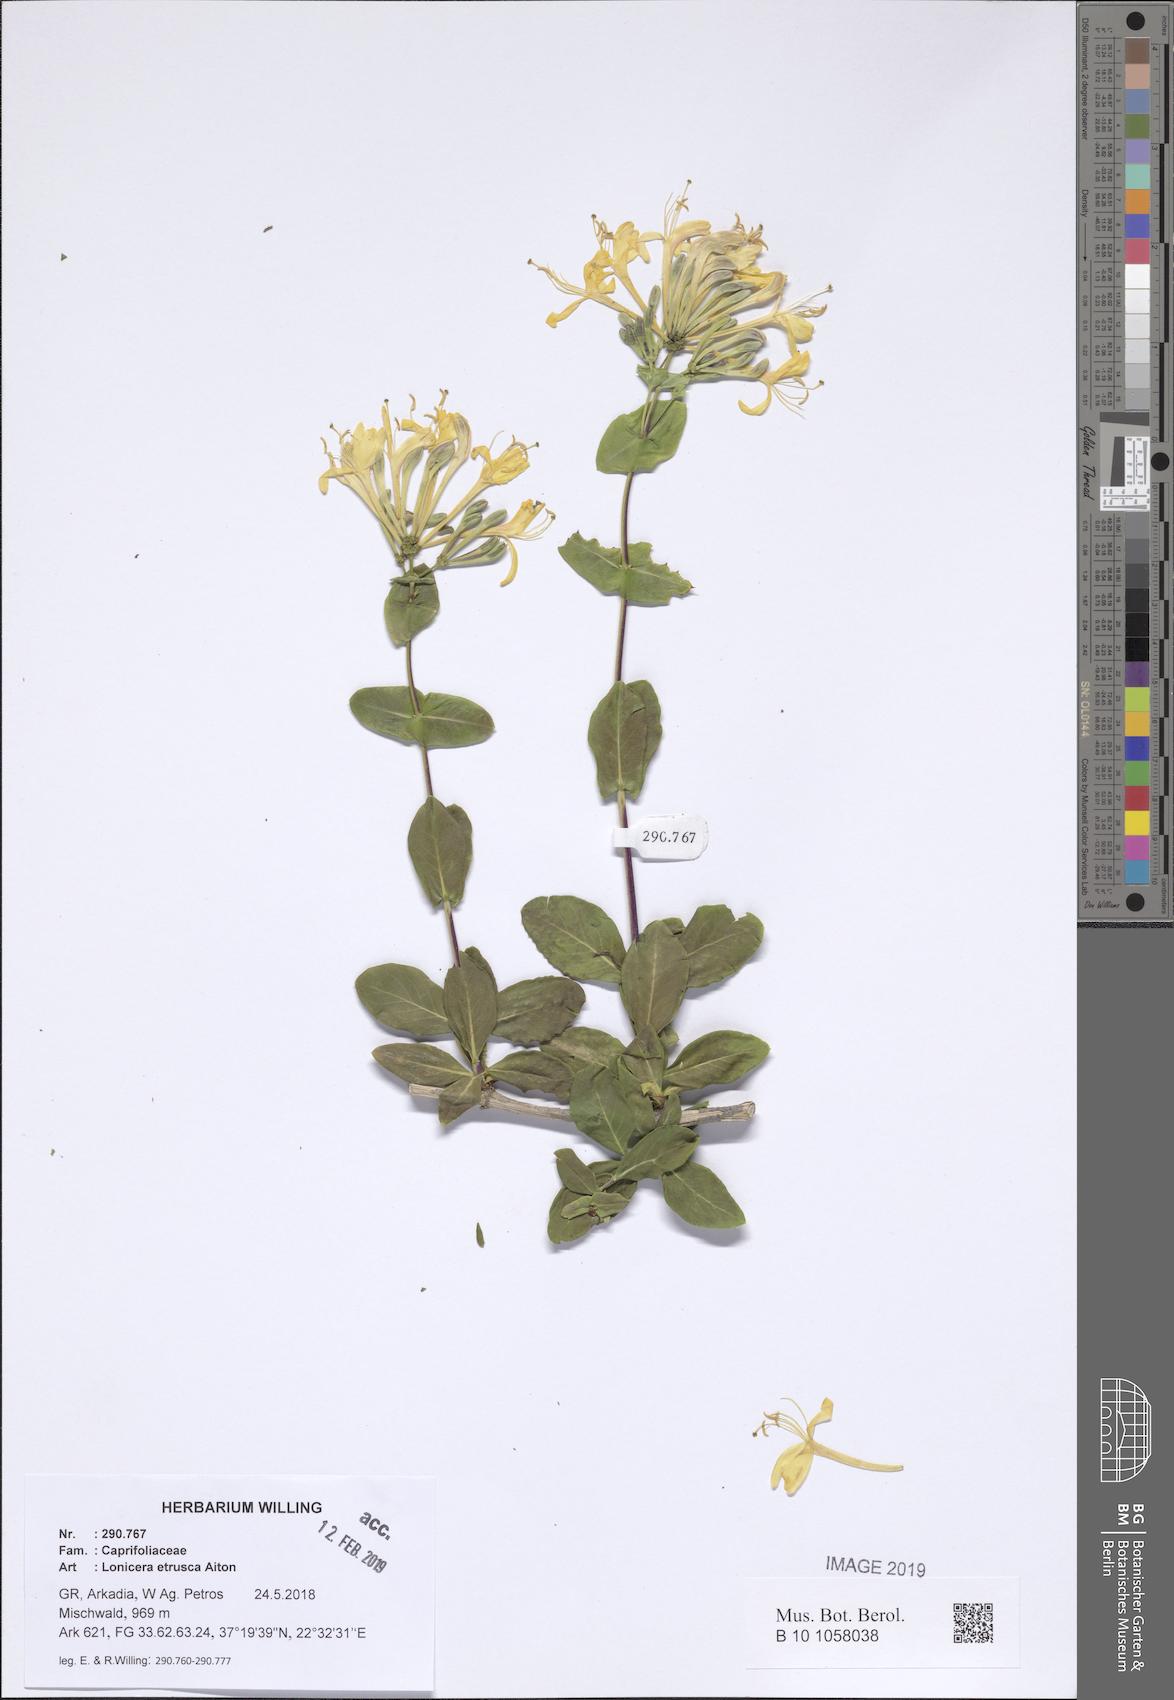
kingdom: Plantae
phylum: Tracheophyta
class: Magnoliopsida
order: Dipsacales
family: Caprifoliaceae
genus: Lonicera
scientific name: Lonicera etrusca
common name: Etruscan honeysuckle
